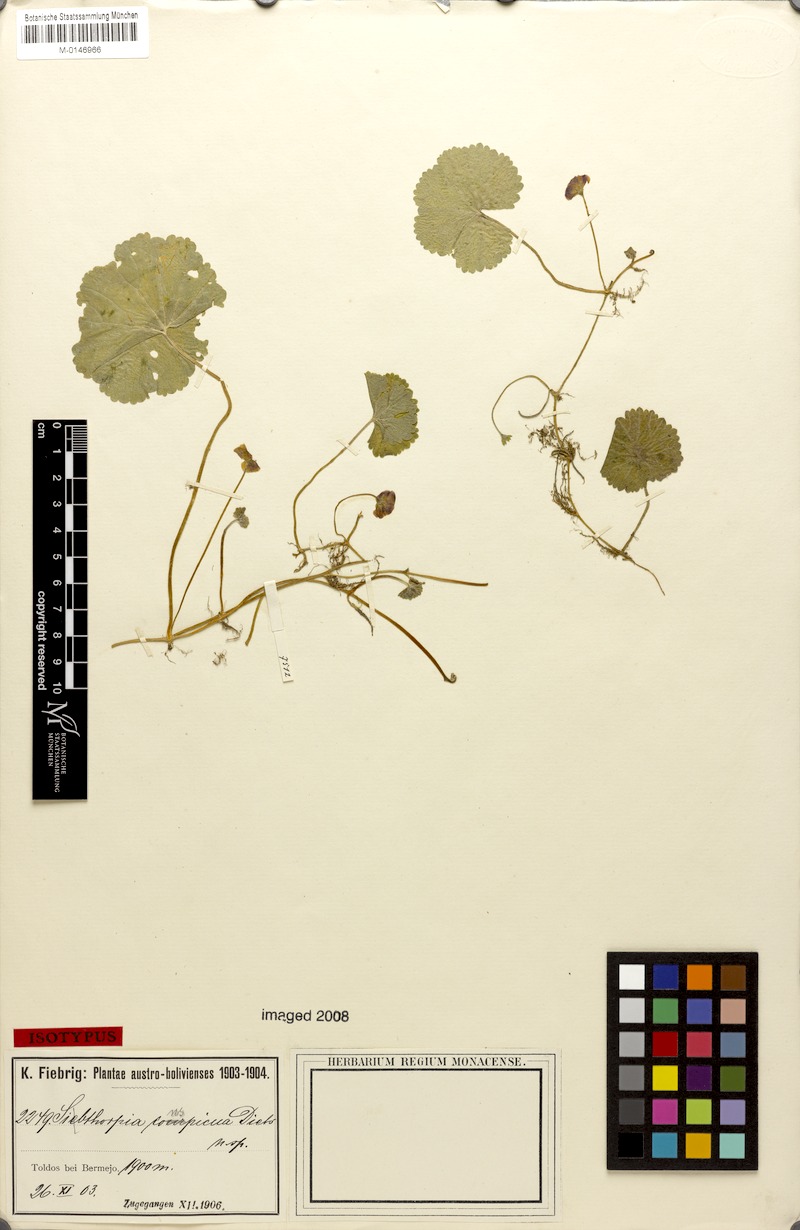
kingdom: Plantae
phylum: Tracheophyta
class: Magnoliopsida
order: Lamiales
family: Plantaginaceae
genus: Sibthorpia
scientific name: Sibthorpia conspicua
